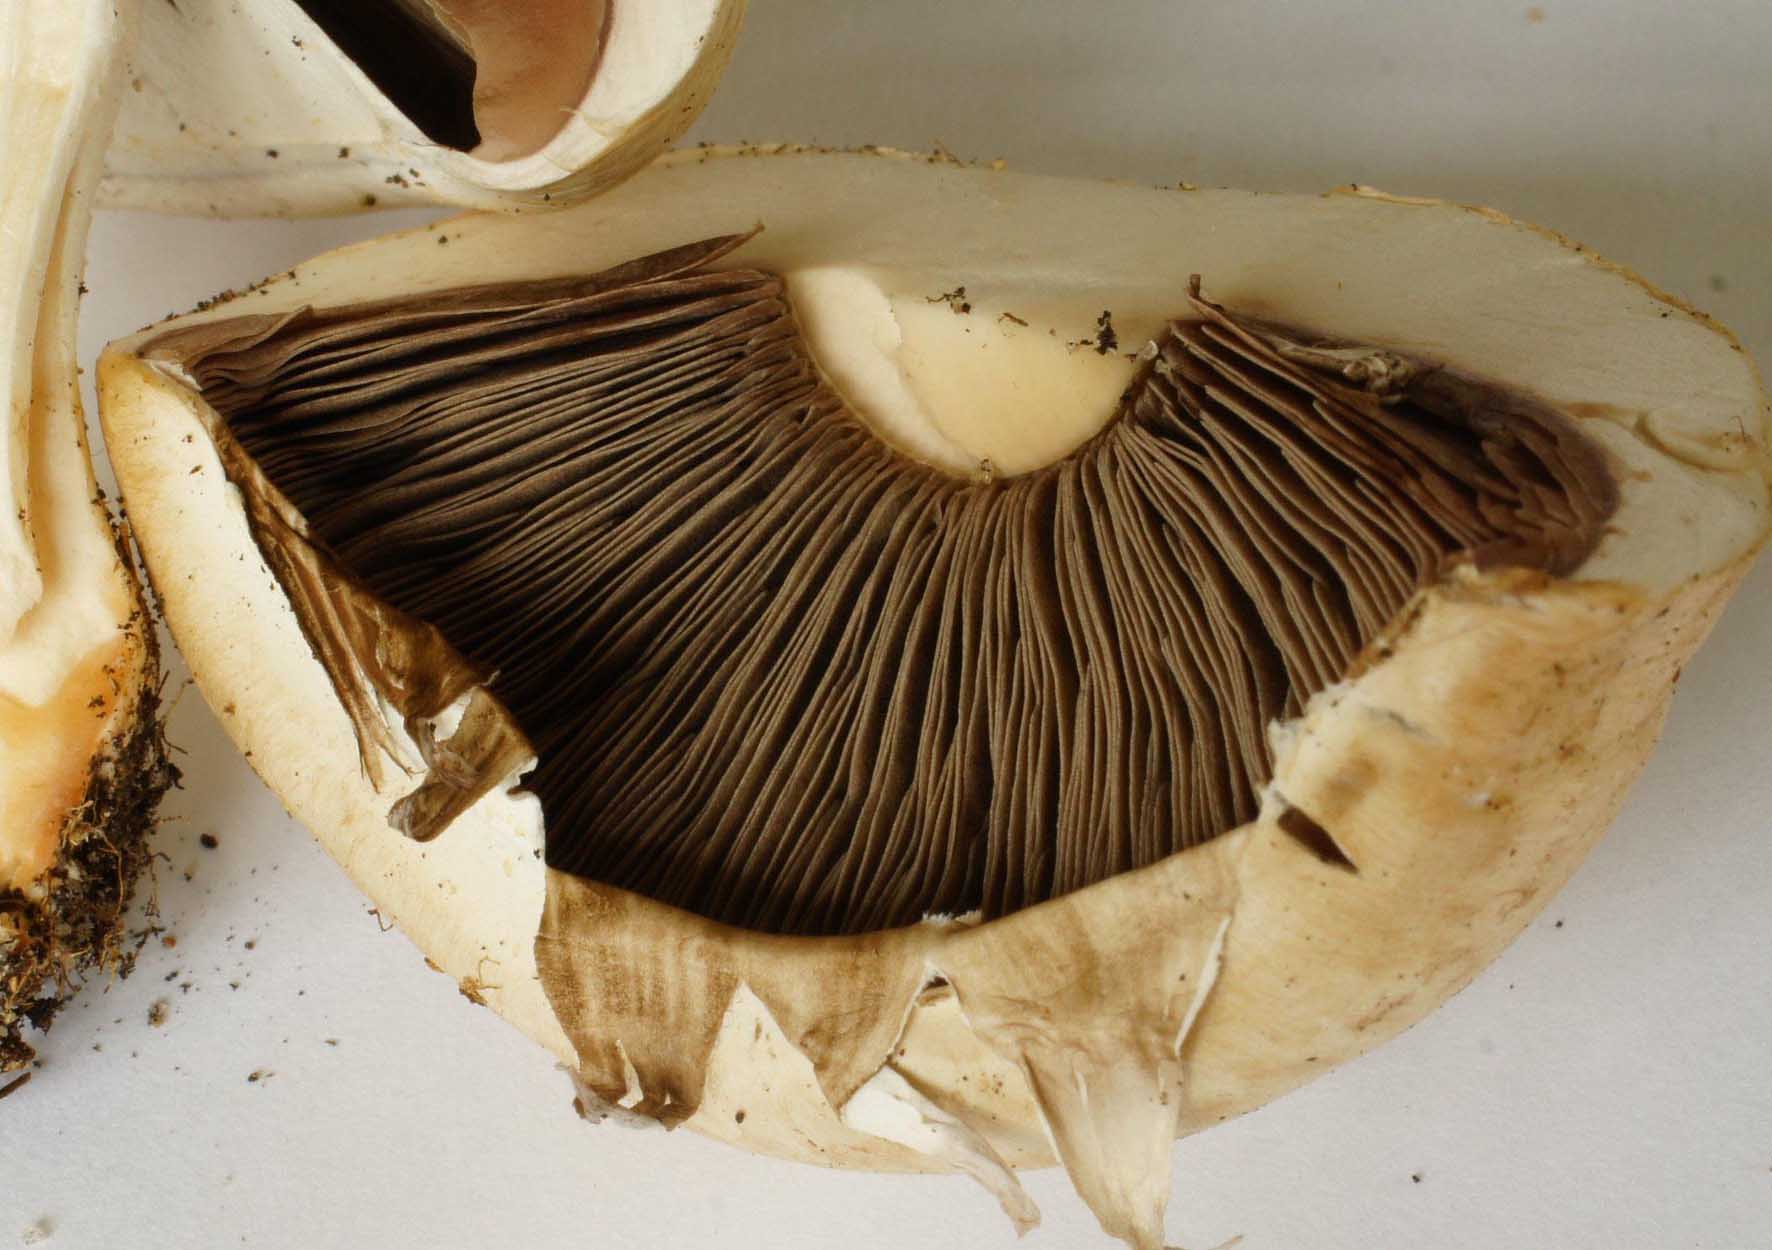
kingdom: Fungi
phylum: Basidiomycota
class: Agaricomycetes
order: Agaricales
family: Agaricaceae
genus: Agaricus
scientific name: Agaricus litoralis
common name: kyst-champignon
